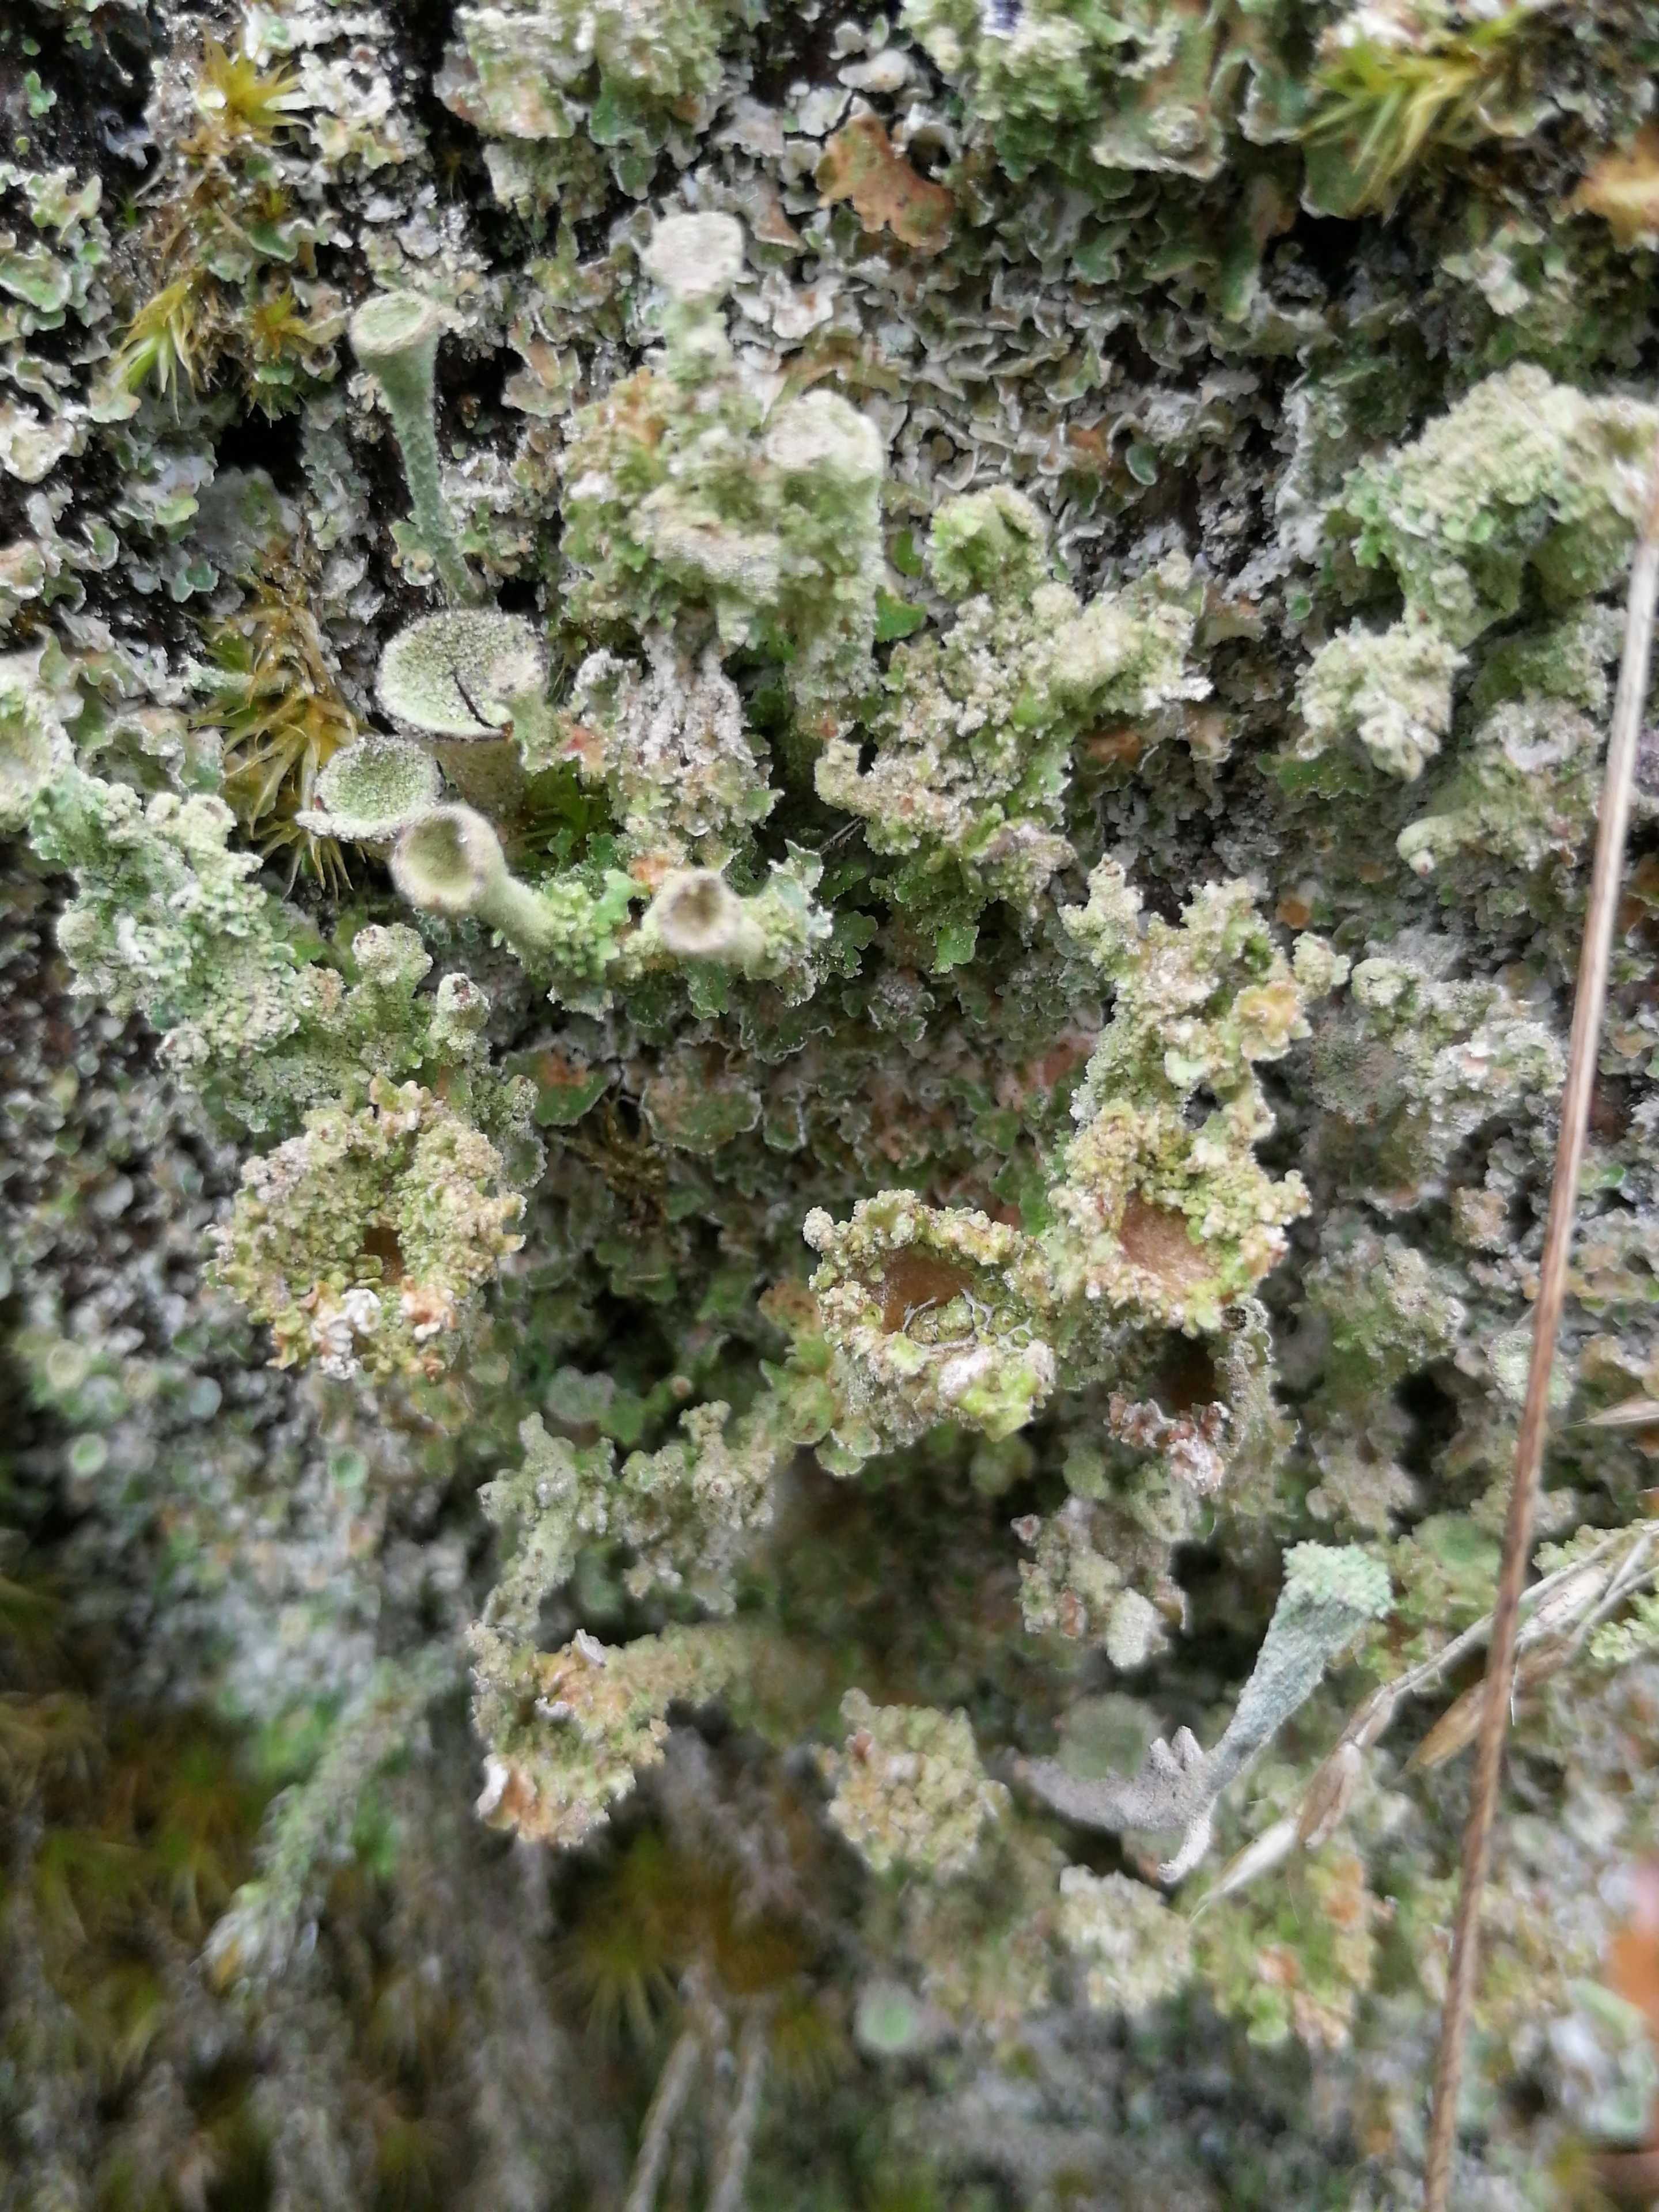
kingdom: Fungi
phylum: Ascomycota
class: Lecanoromycetes
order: Lecanorales
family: Cladoniaceae
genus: Cladonia
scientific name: Cladonia
